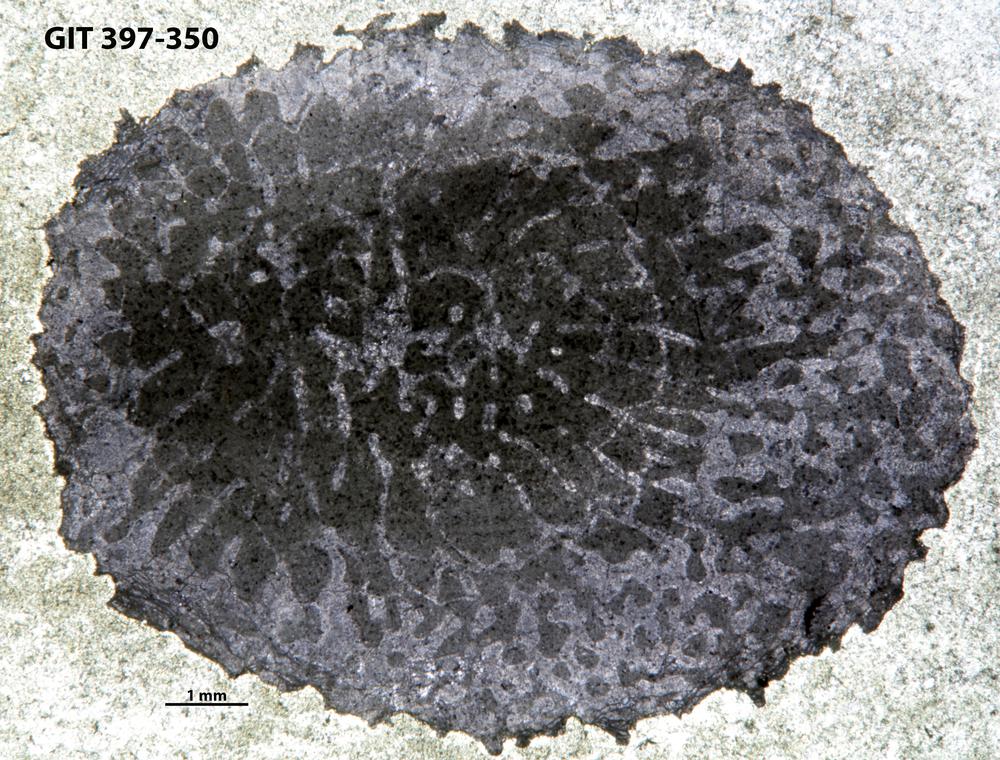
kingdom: Animalia
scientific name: Animalia
